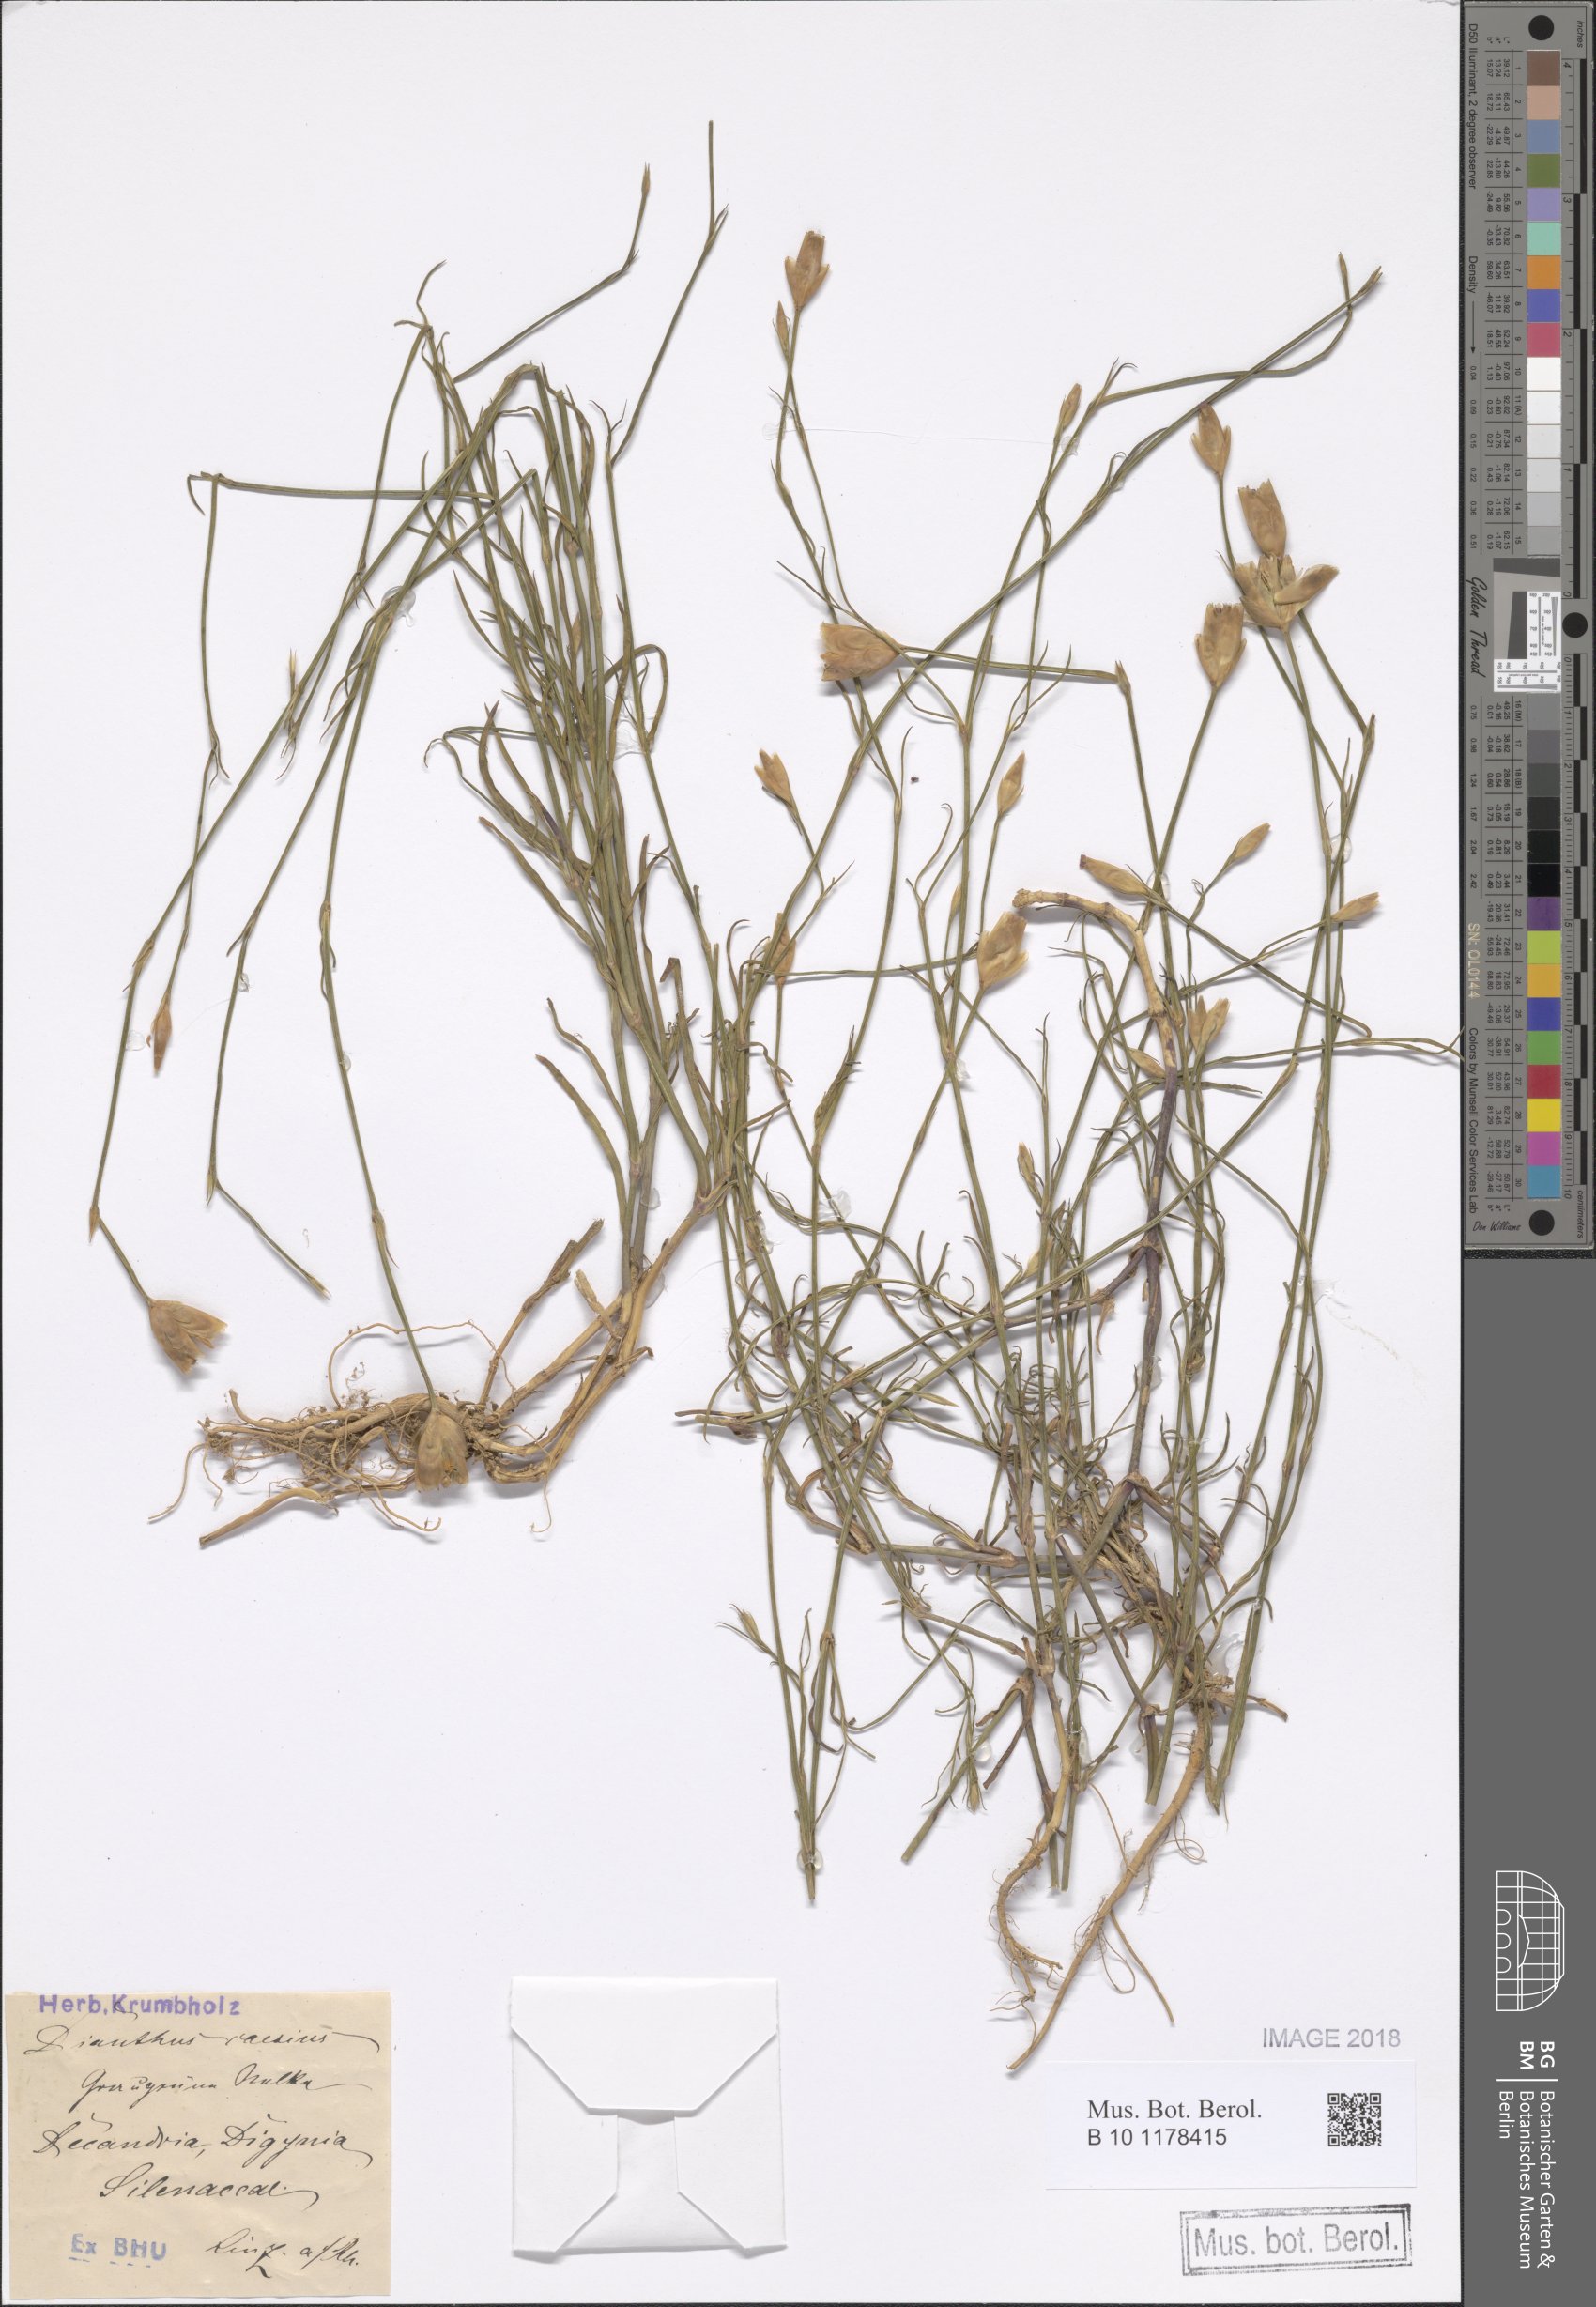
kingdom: Plantae
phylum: Tracheophyta
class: Magnoliopsida
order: Caryophyllales
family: Caryophyllaceae
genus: Petrorhagia
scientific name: Petrorhagia prolifera
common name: Proliferous pink
